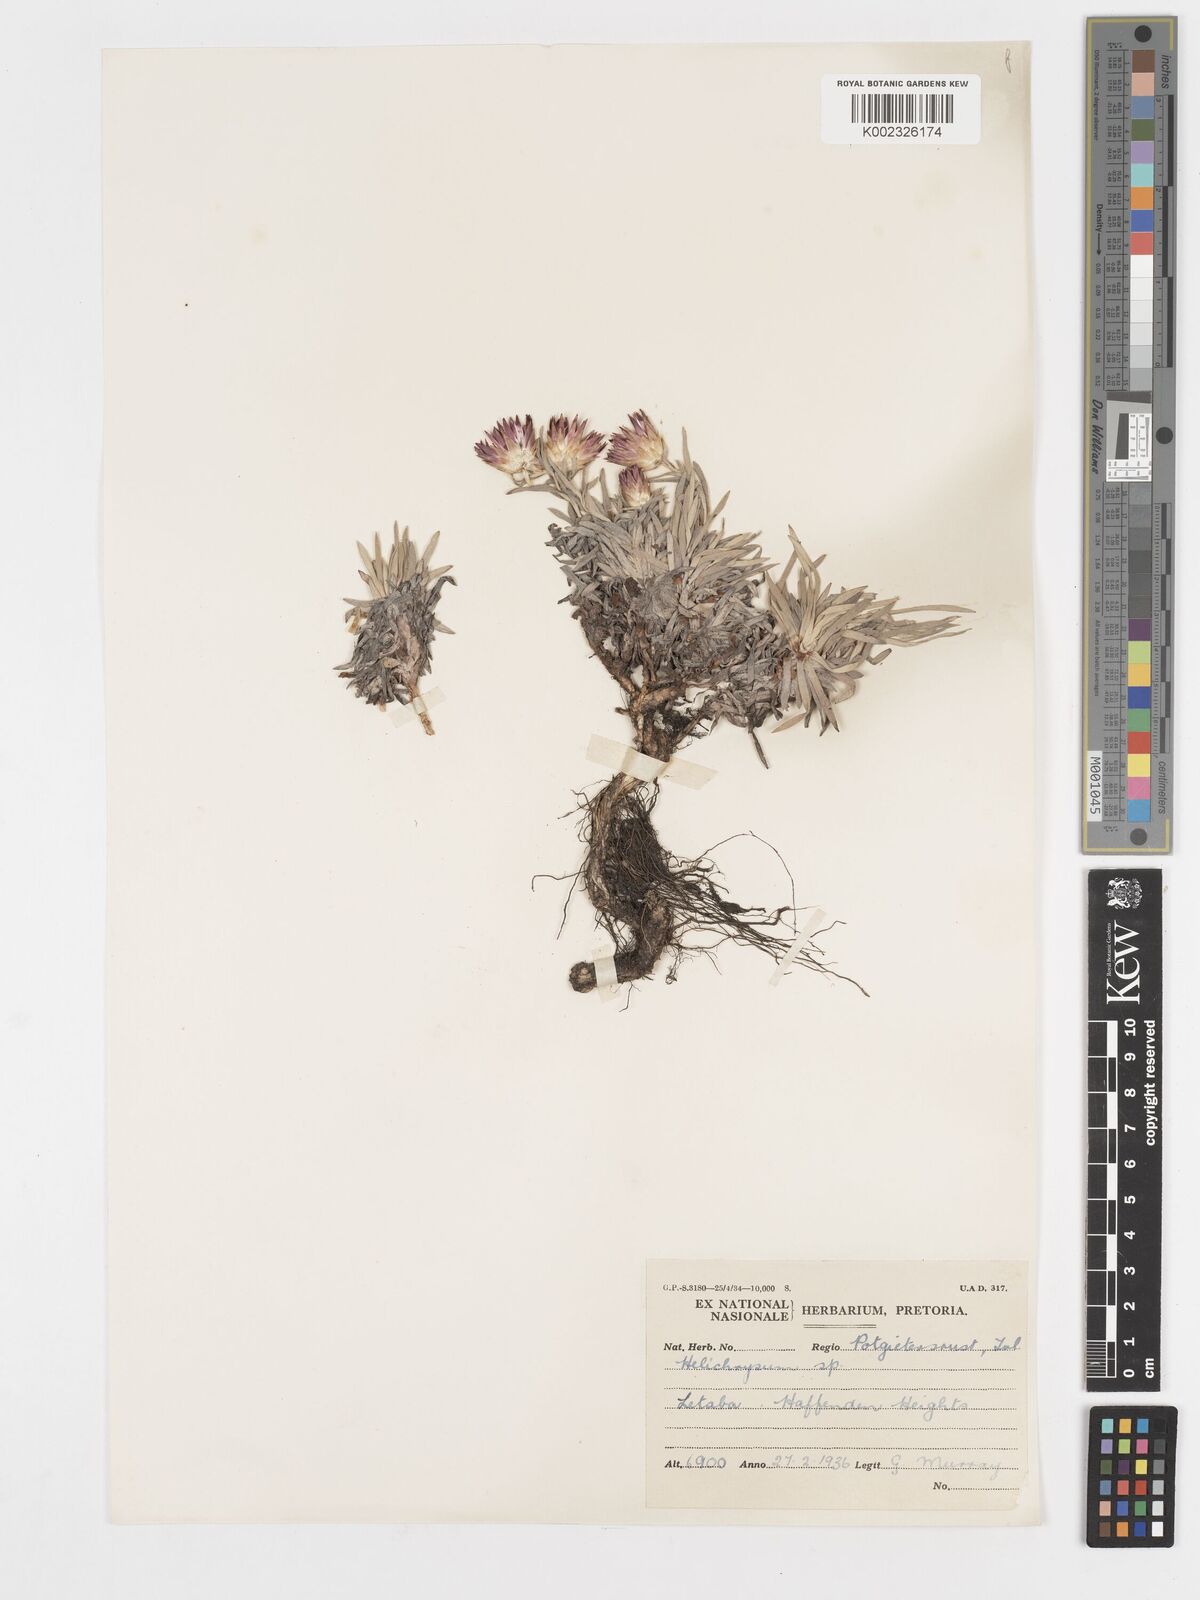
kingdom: Plantae
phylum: Tracheophyta
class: Magnoliopsida
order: Asterales
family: Asteraceae
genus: Helichrysum
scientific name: Helichrysum confertifolium
